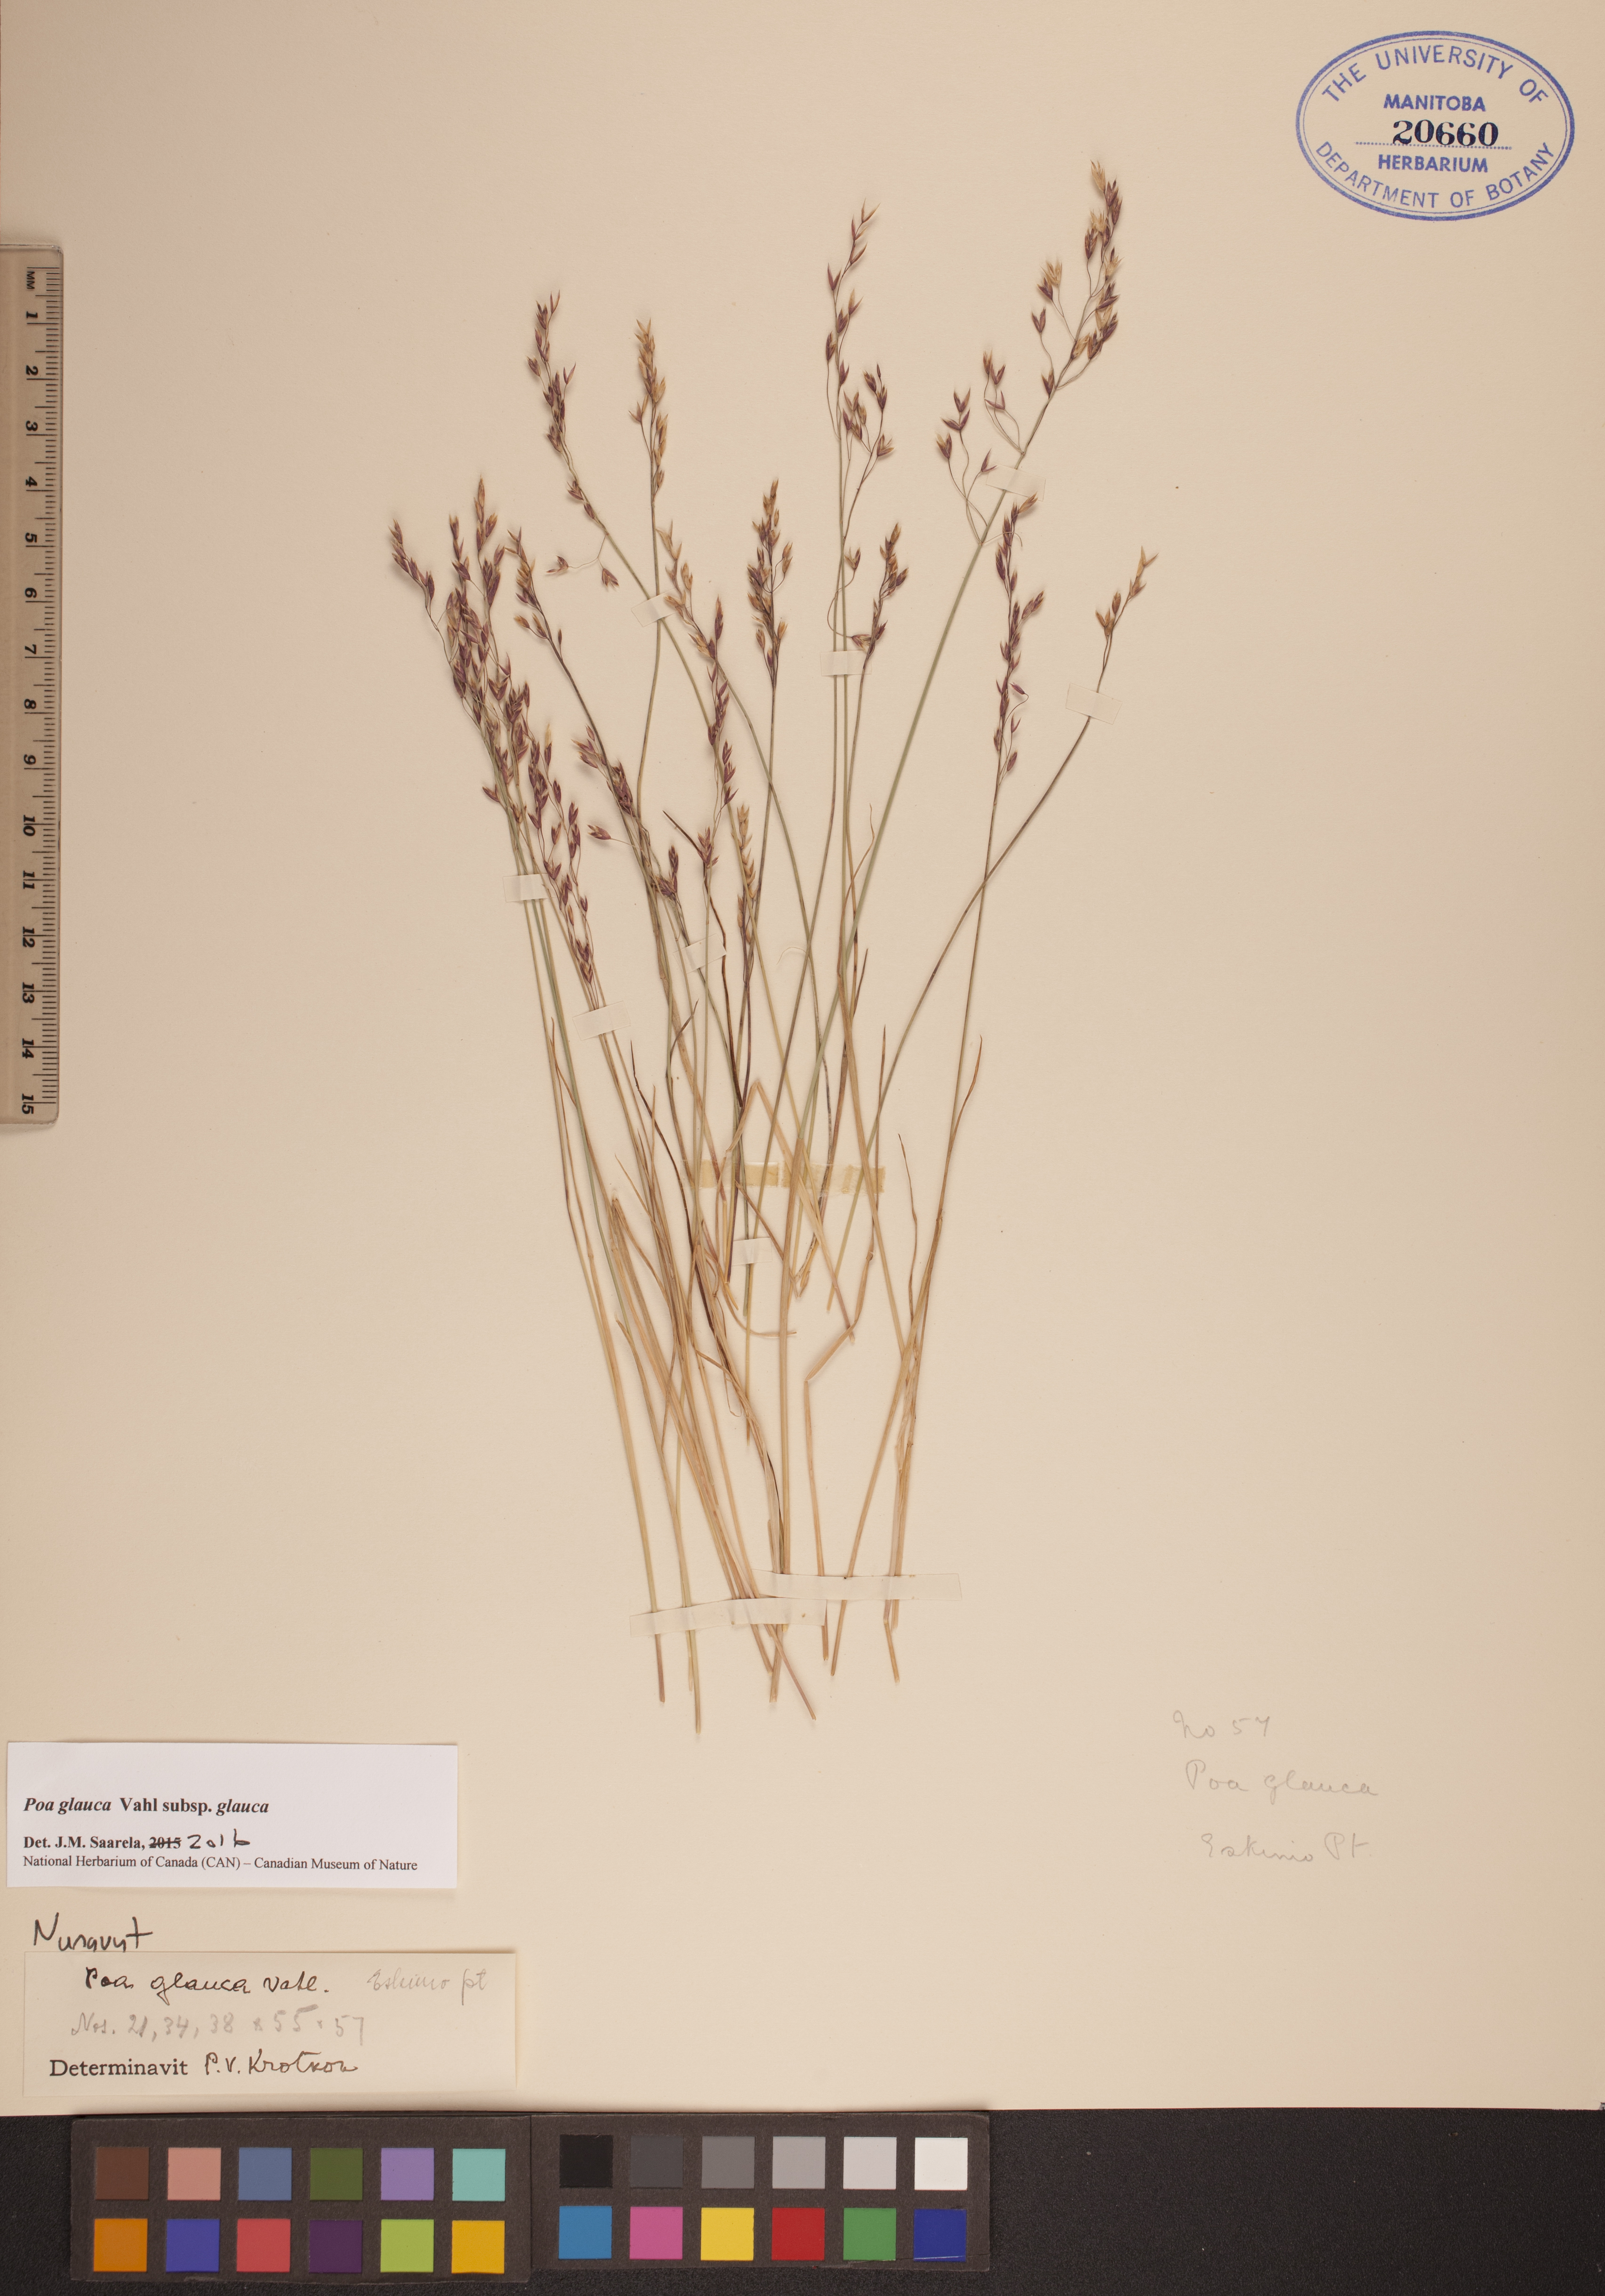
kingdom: Plantae
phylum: Tracheophyta
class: Liliopsida
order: Poales
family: Poaceae
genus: Poa
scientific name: Poa glauca
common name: Glaucous bluegrass
